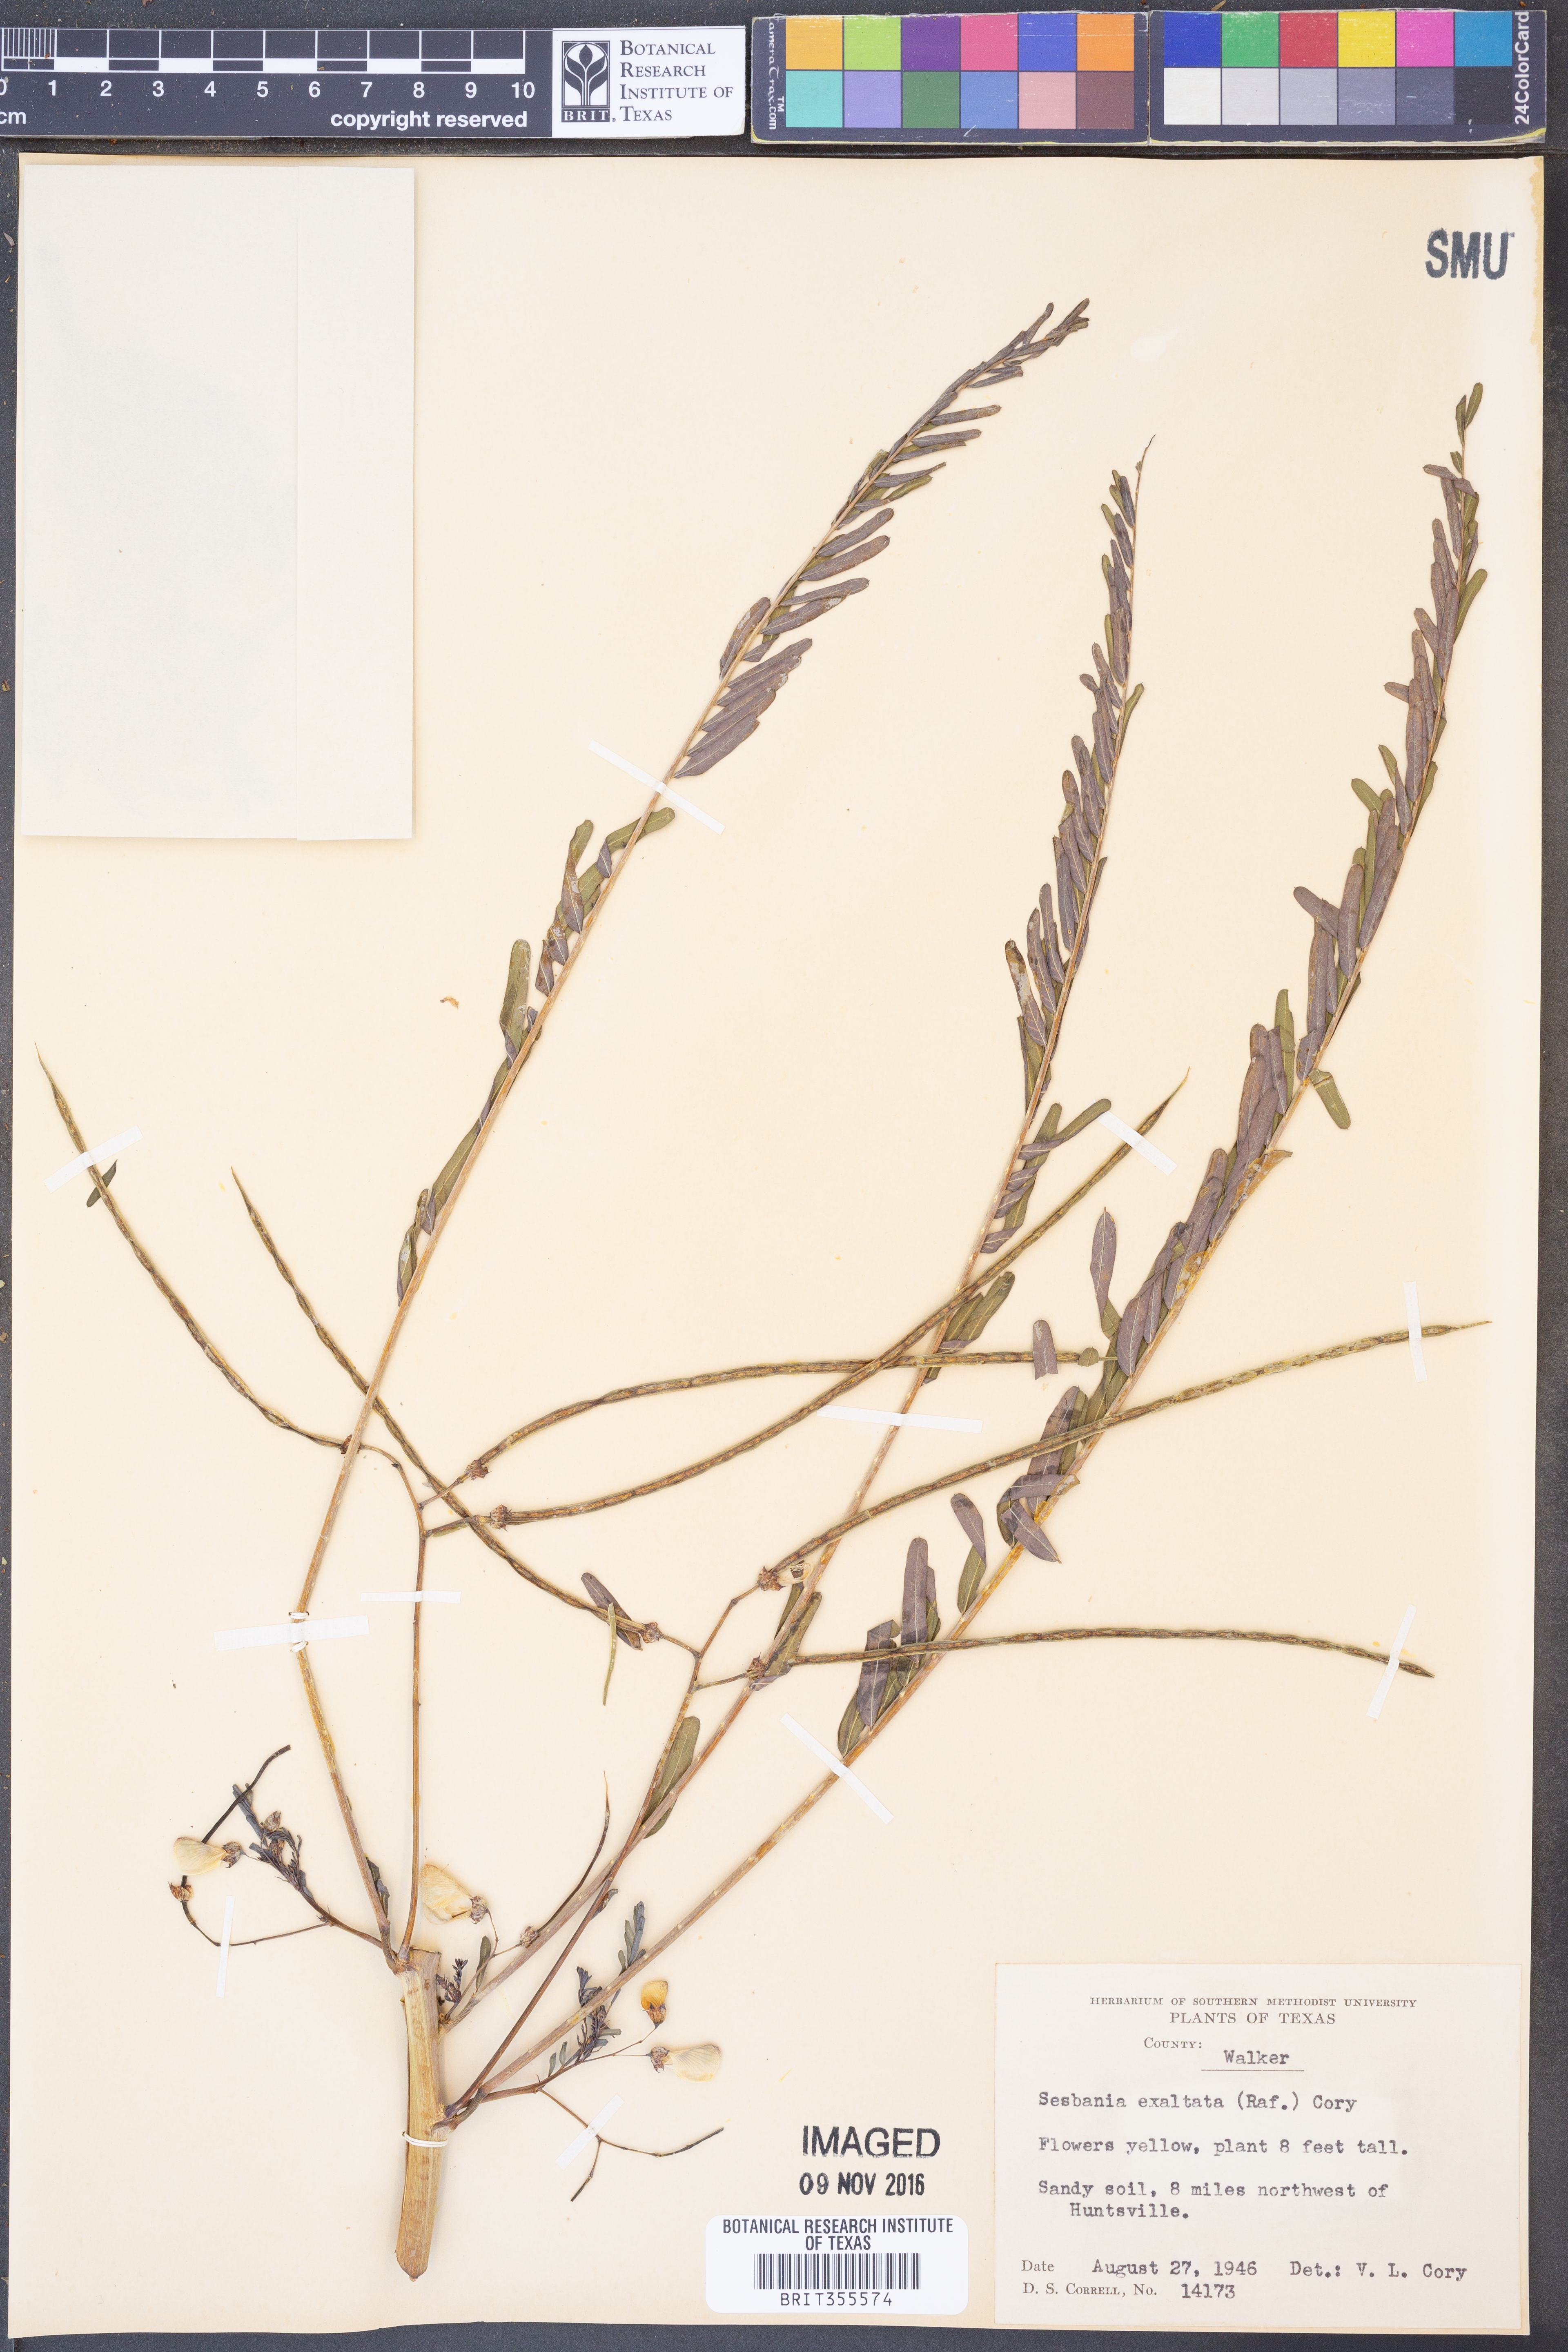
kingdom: Plantae
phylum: Tracheophyta
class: Magnoliopsida
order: Fabales
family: Fabaceae
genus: Sesbania
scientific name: Sesbania herbacea
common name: Bigpod sesbania
